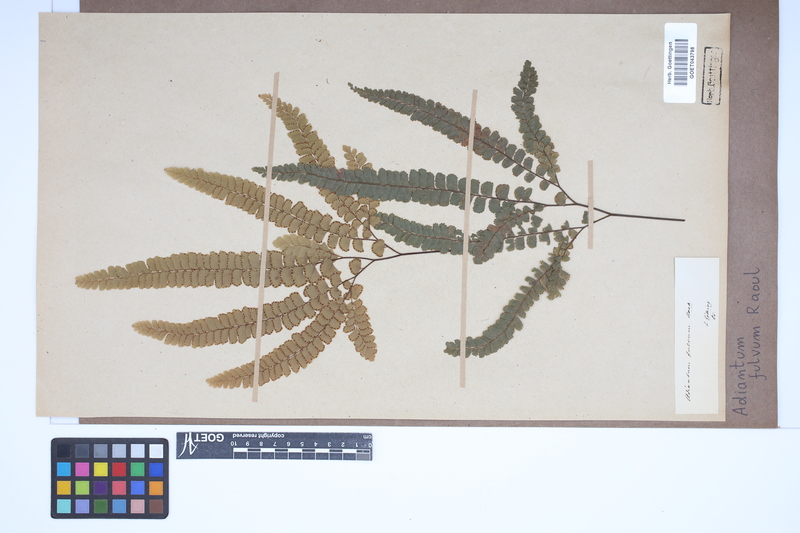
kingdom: Plantae
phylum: Tracheophyta
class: Polypodiopsida
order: Polypodiales
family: Pteridaceae
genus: Adiantum
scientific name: Adiantum fulvum
